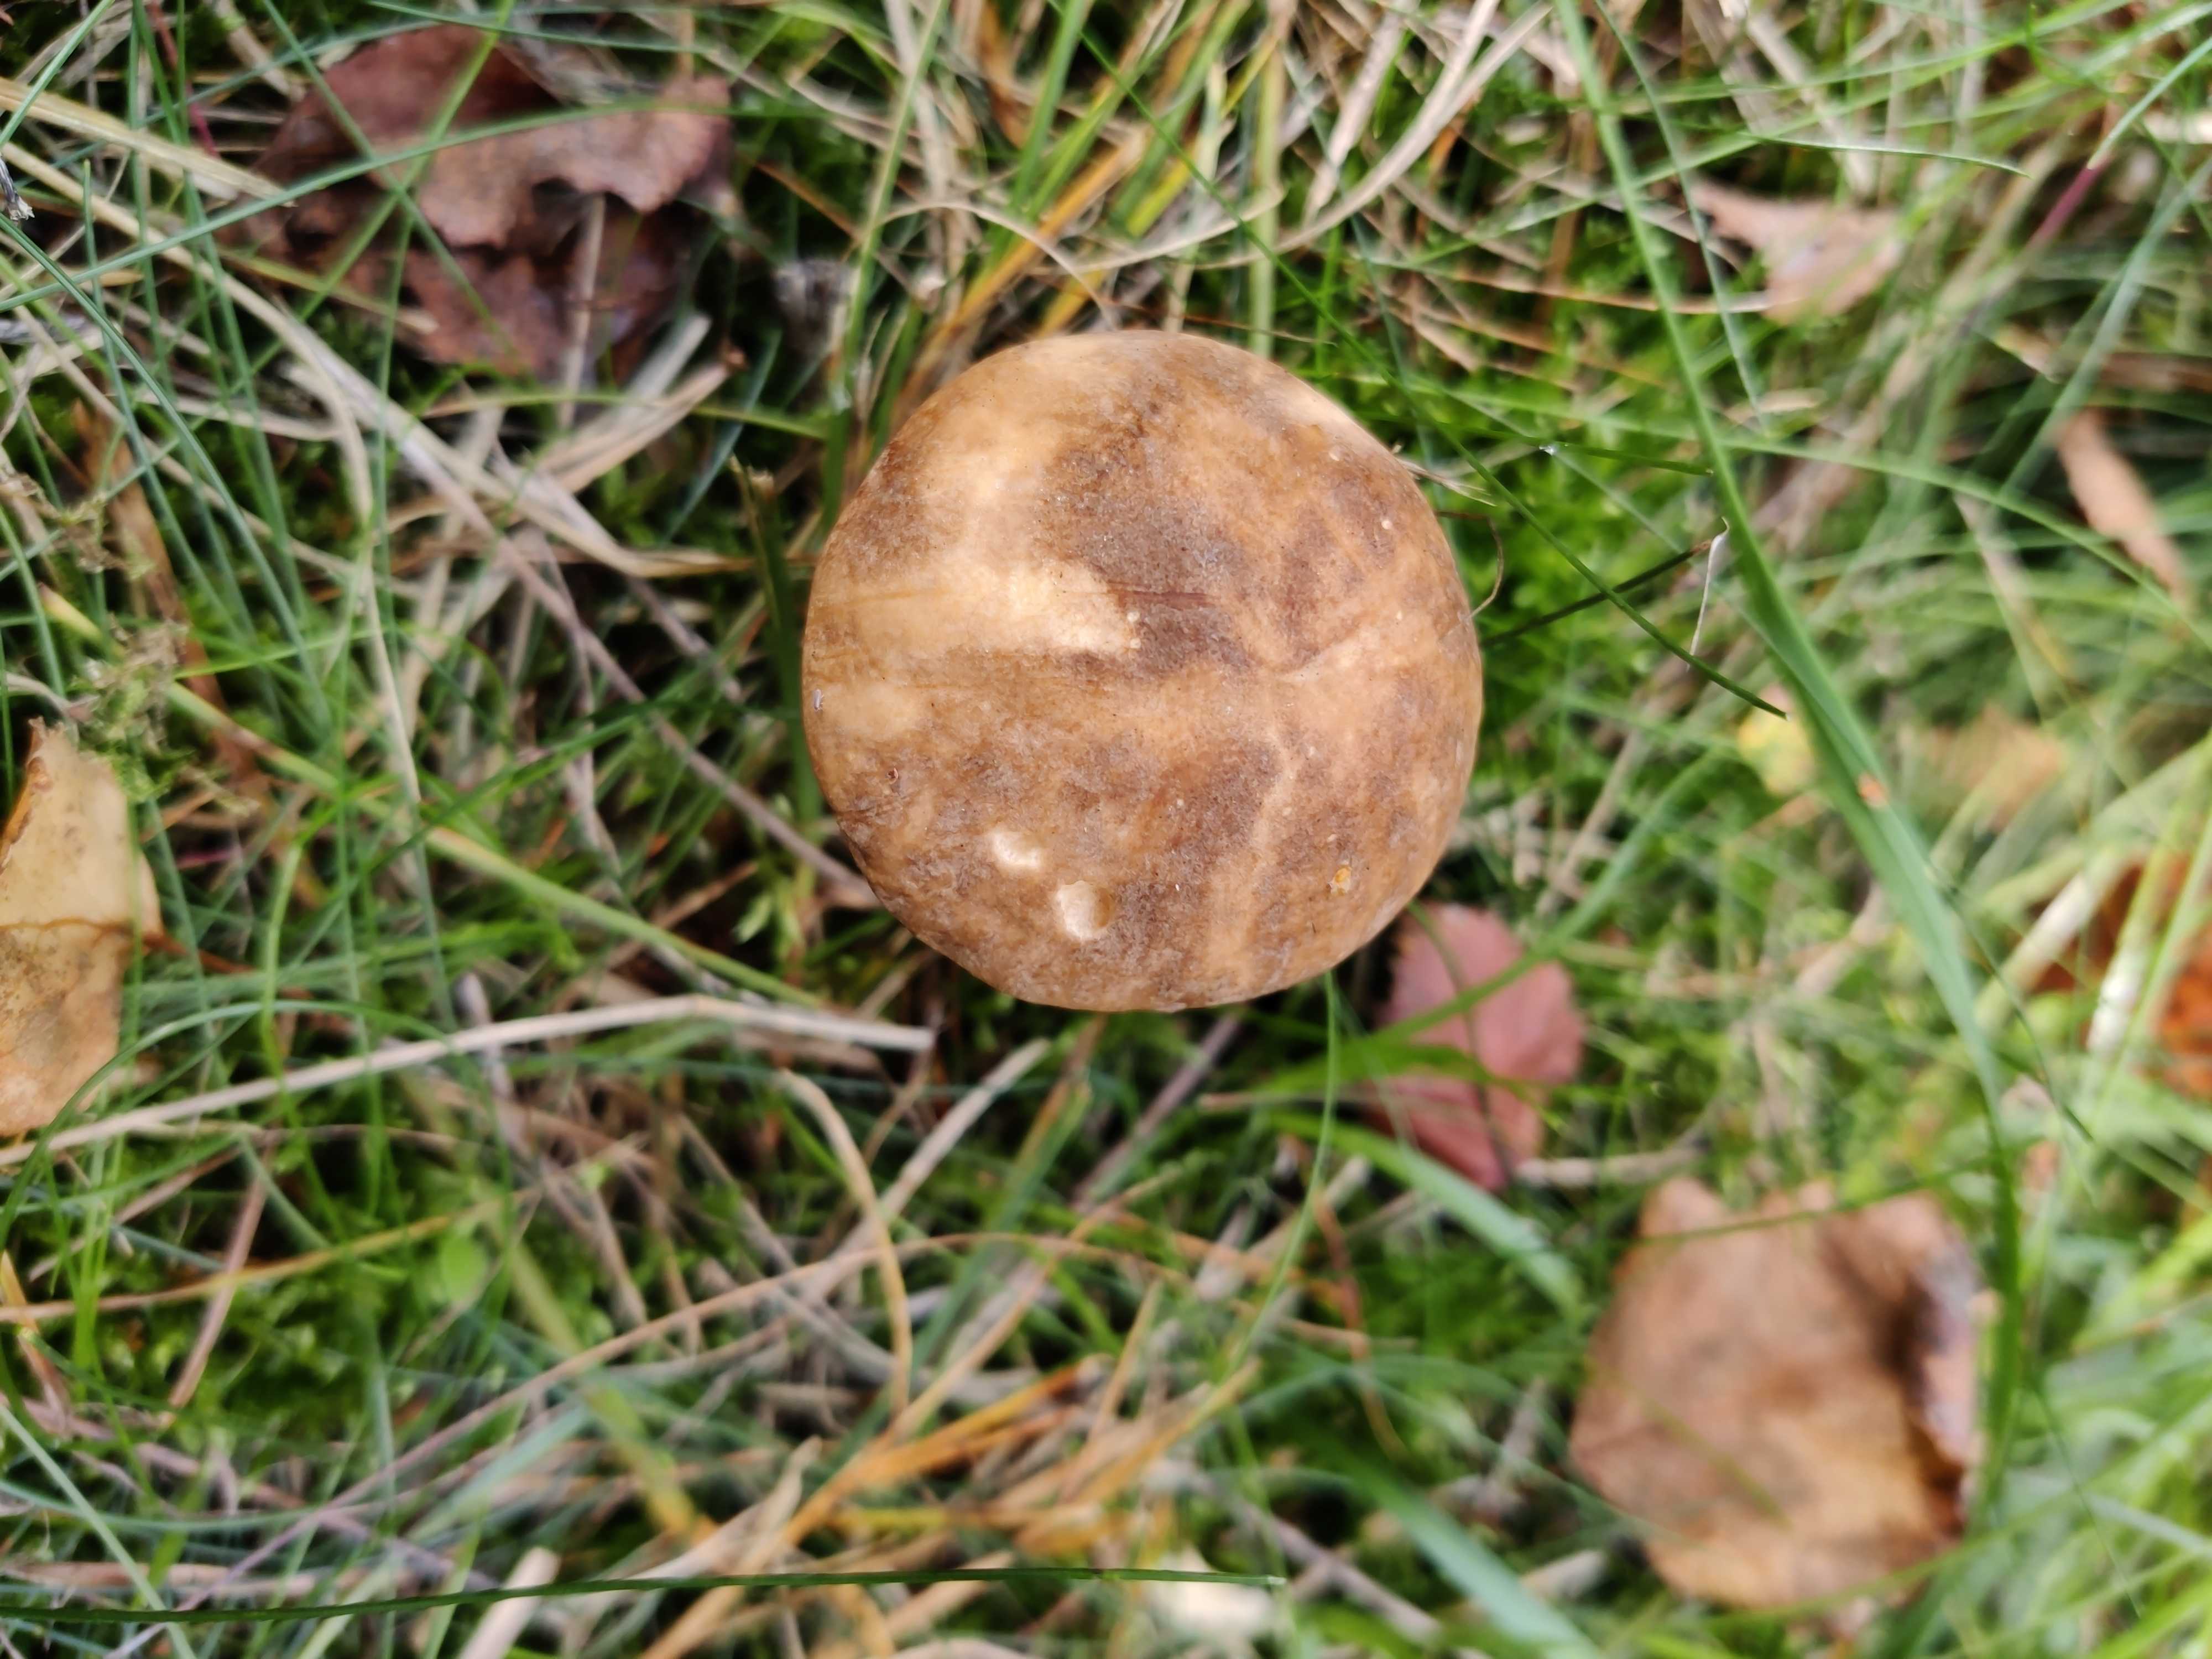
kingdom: Fungi
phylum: Basidiomycota
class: Agaricomycetes
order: Boletales
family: Boletaceae
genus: Leccinum
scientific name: Leccinum scabrum
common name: brun skælrørhat
